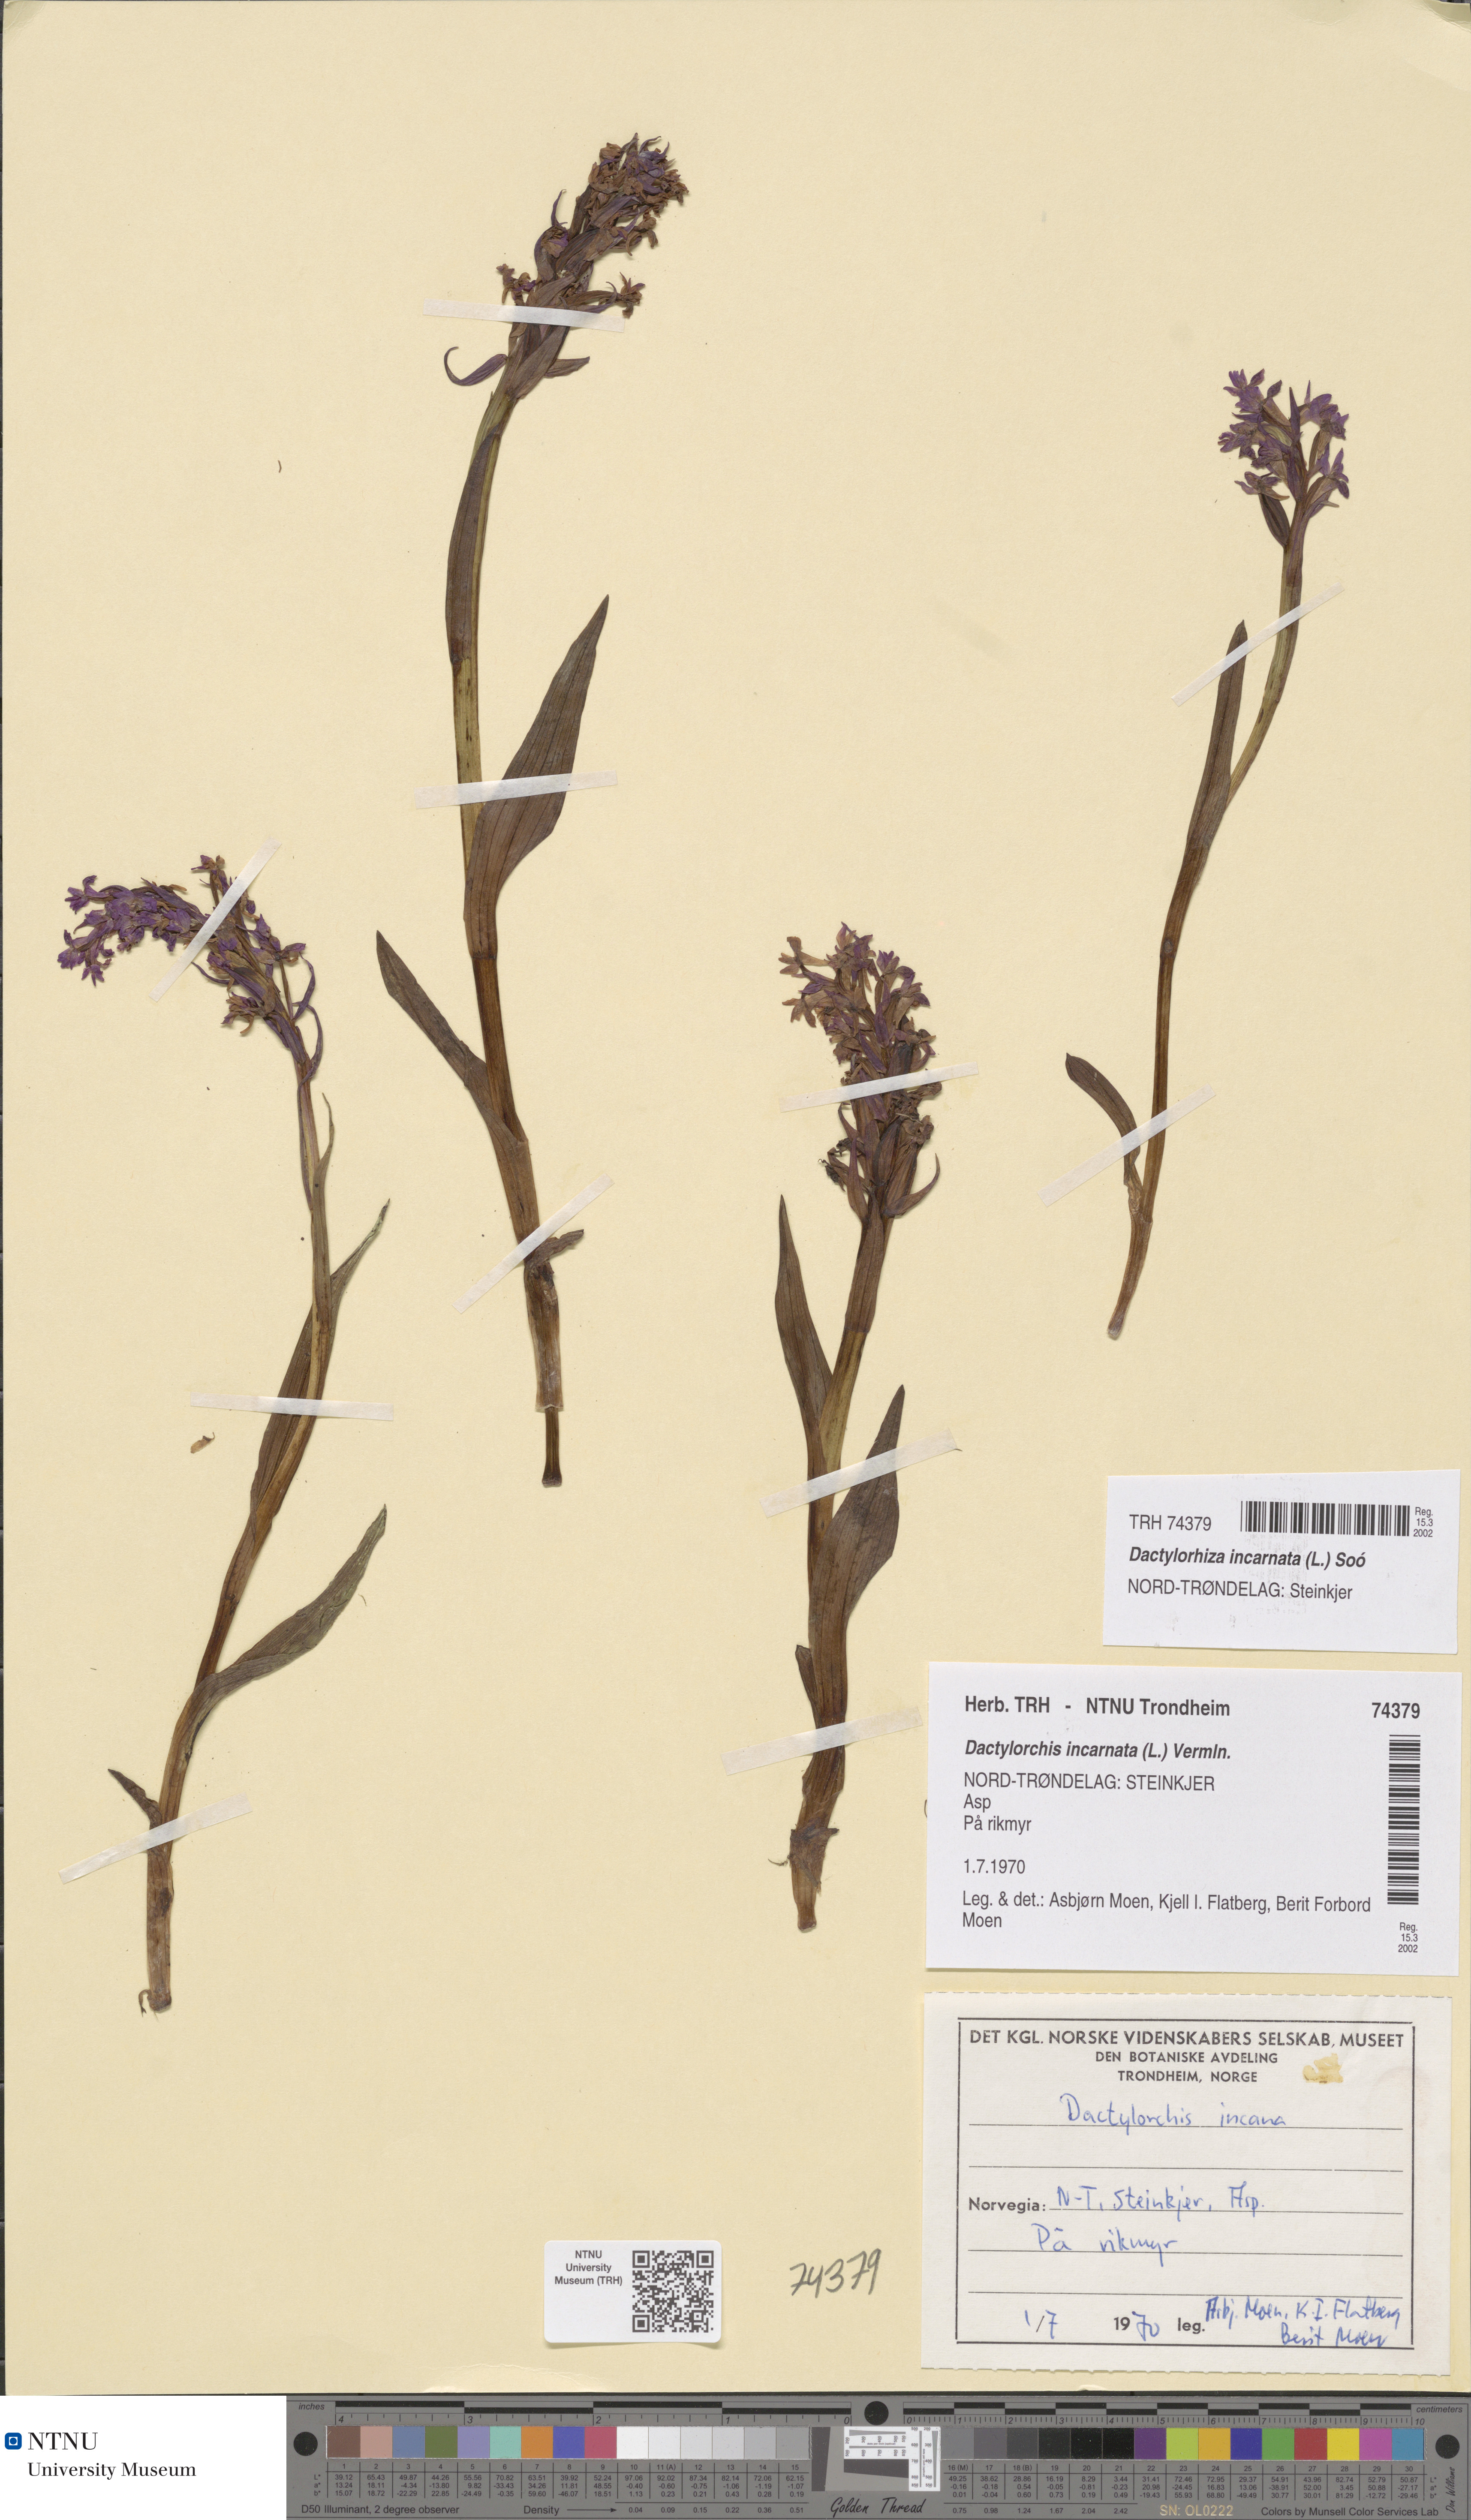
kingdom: Plantae
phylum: Tracheophyta
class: Liliopsida
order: Asparagales
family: Orchidaceae
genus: Dactylorhiza
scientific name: Dactylorhiza incarnata
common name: Early marsh-orchid
